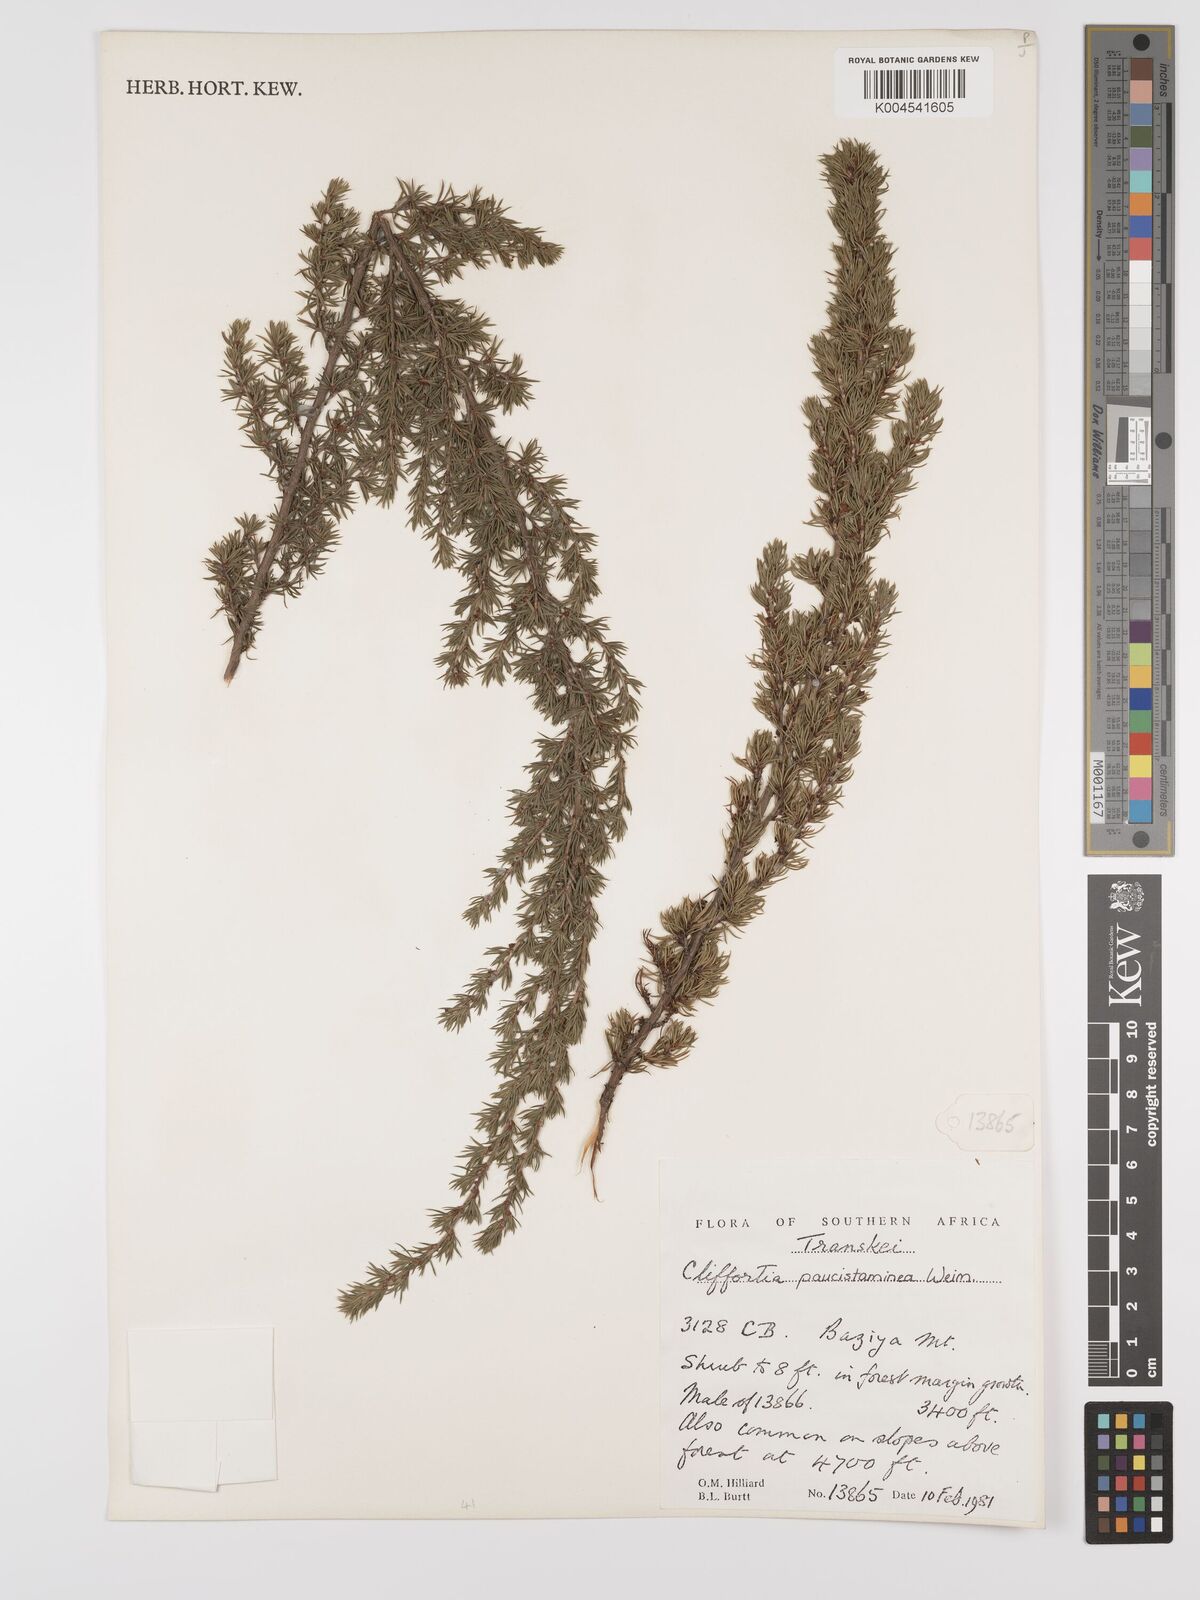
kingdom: Plantae
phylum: Tracheophyta
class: Magnoliopsida
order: Rosales
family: Rosaceae
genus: Cliffortia
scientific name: Cliffortia paucistaminea
